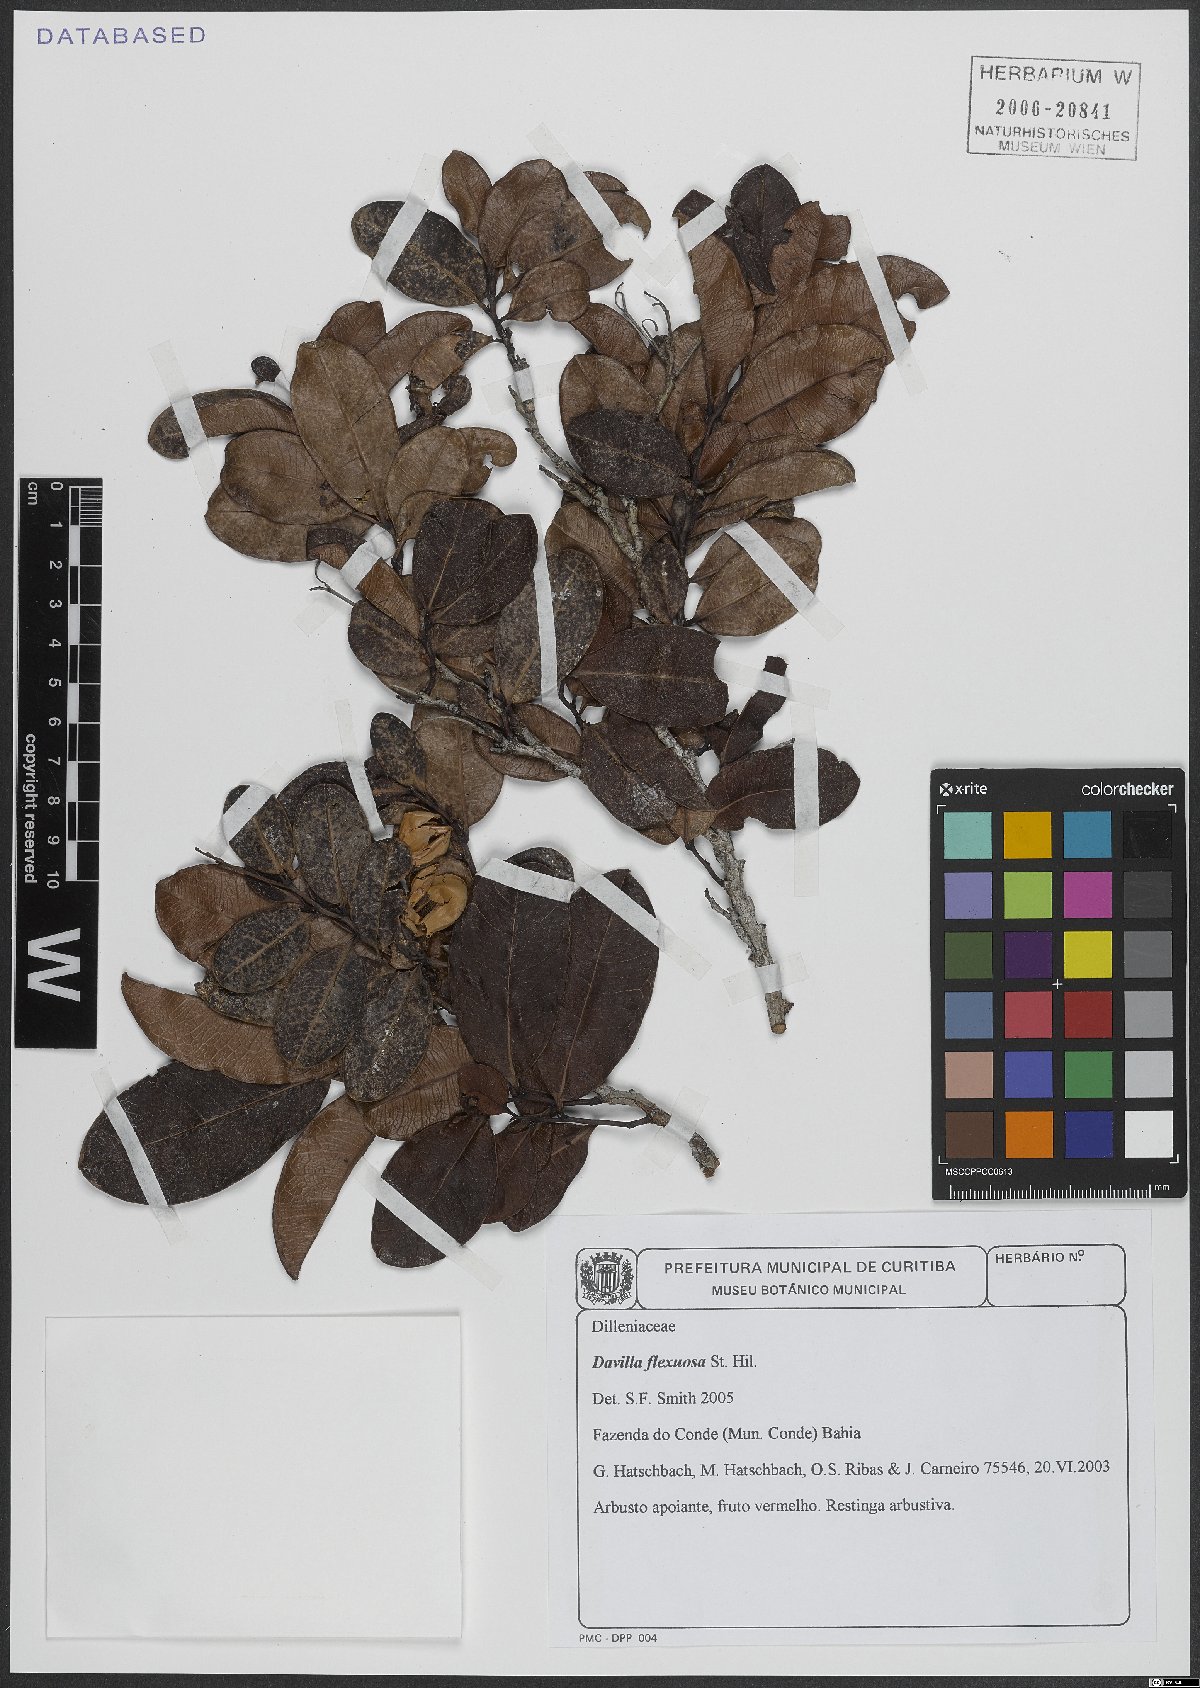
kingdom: Plantae
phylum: Tracheophyta
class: Magnoliopsida
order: Dilleniales
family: Dilleniaceae
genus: Davilla
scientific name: Davilla flexuosa
